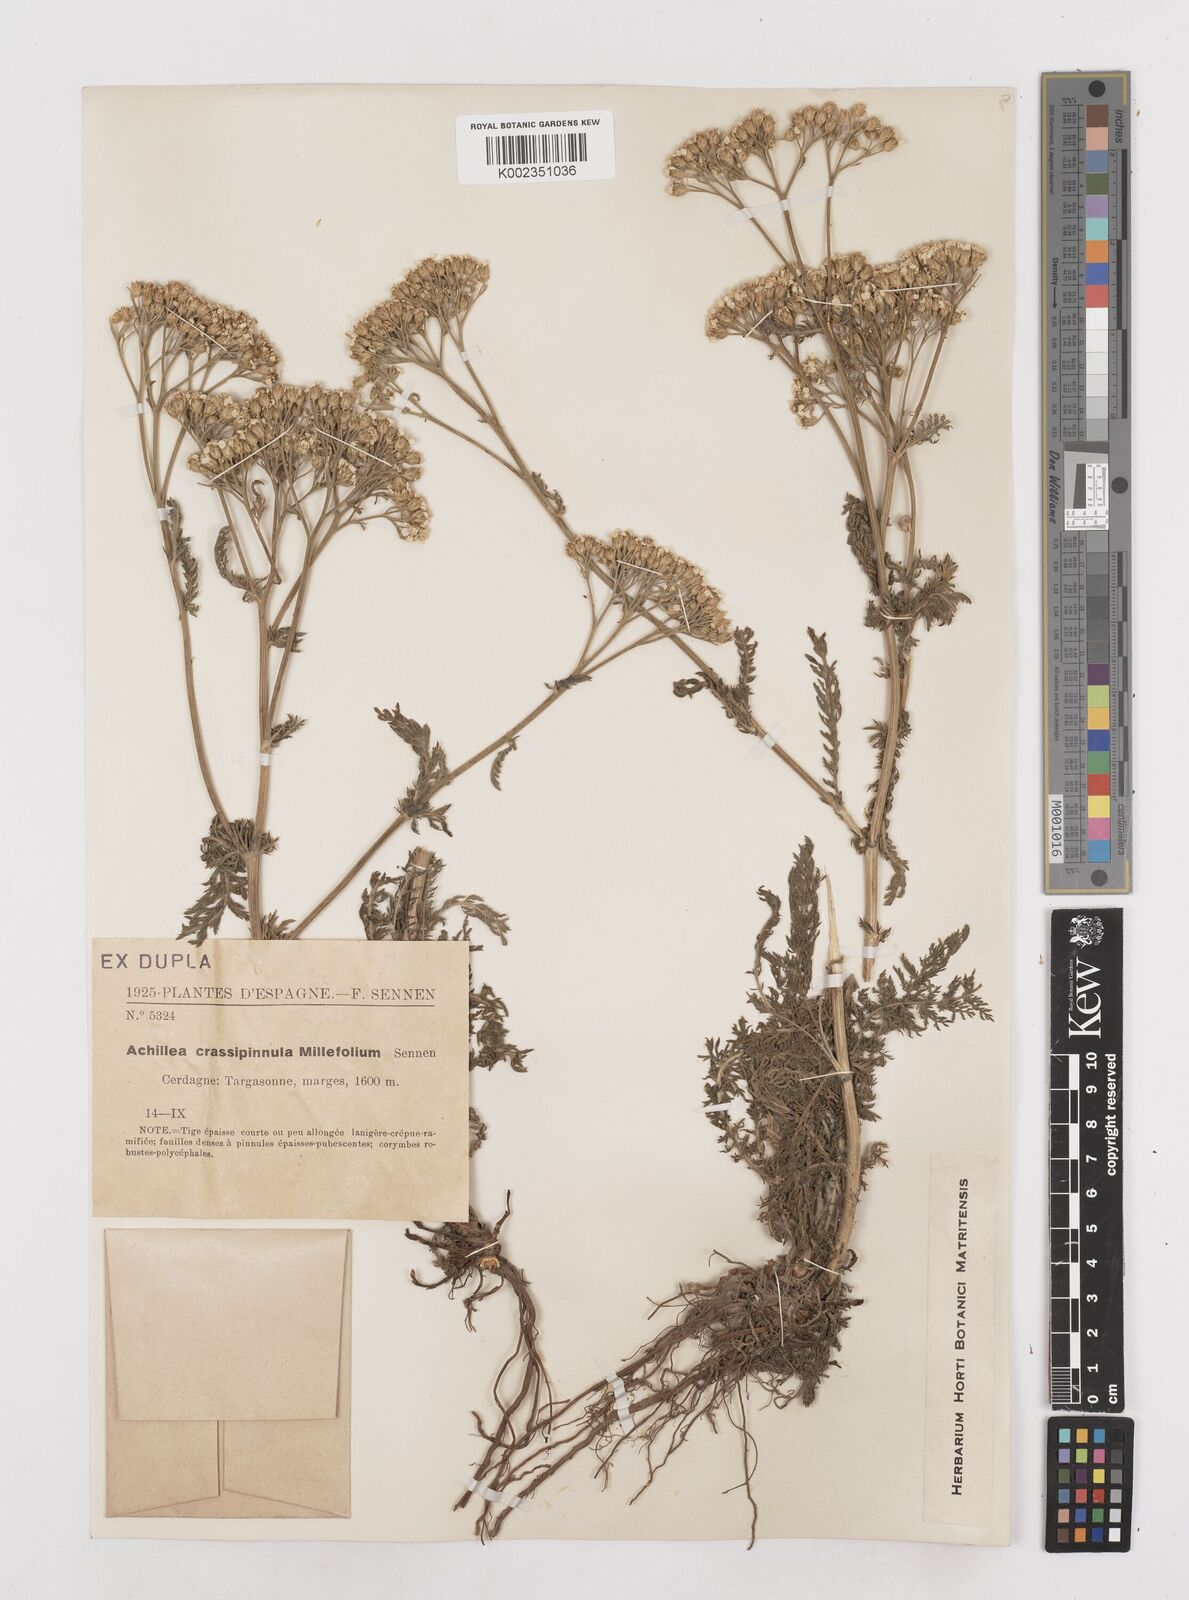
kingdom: Plantae
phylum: Tracheophyta
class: Magnoliopsida
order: Asterales
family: Asteraceae
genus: Achillea
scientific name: Achillea millefolium
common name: Yarrow
